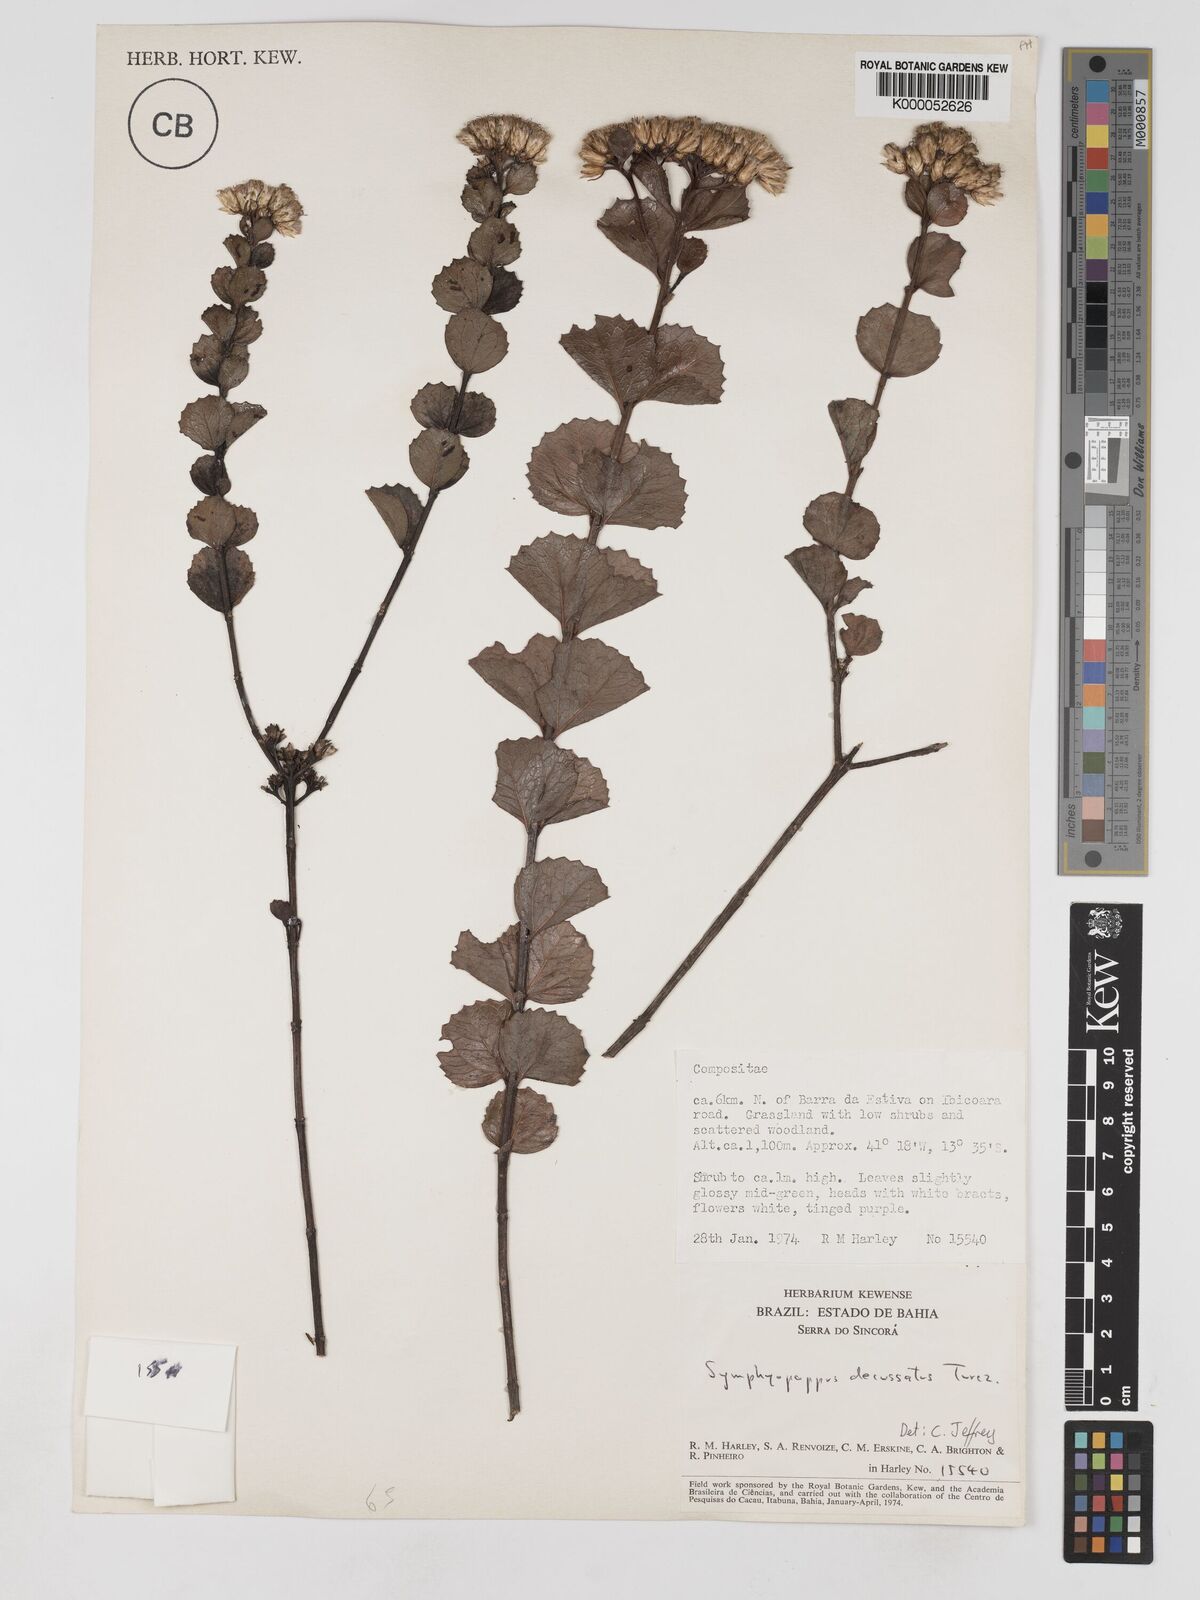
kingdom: Plantae
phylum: Tracheophyta
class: Magnoliopsida
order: Asterales
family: Asteraceae
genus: Symphyopappus
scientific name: Symphyopappus decussatus
